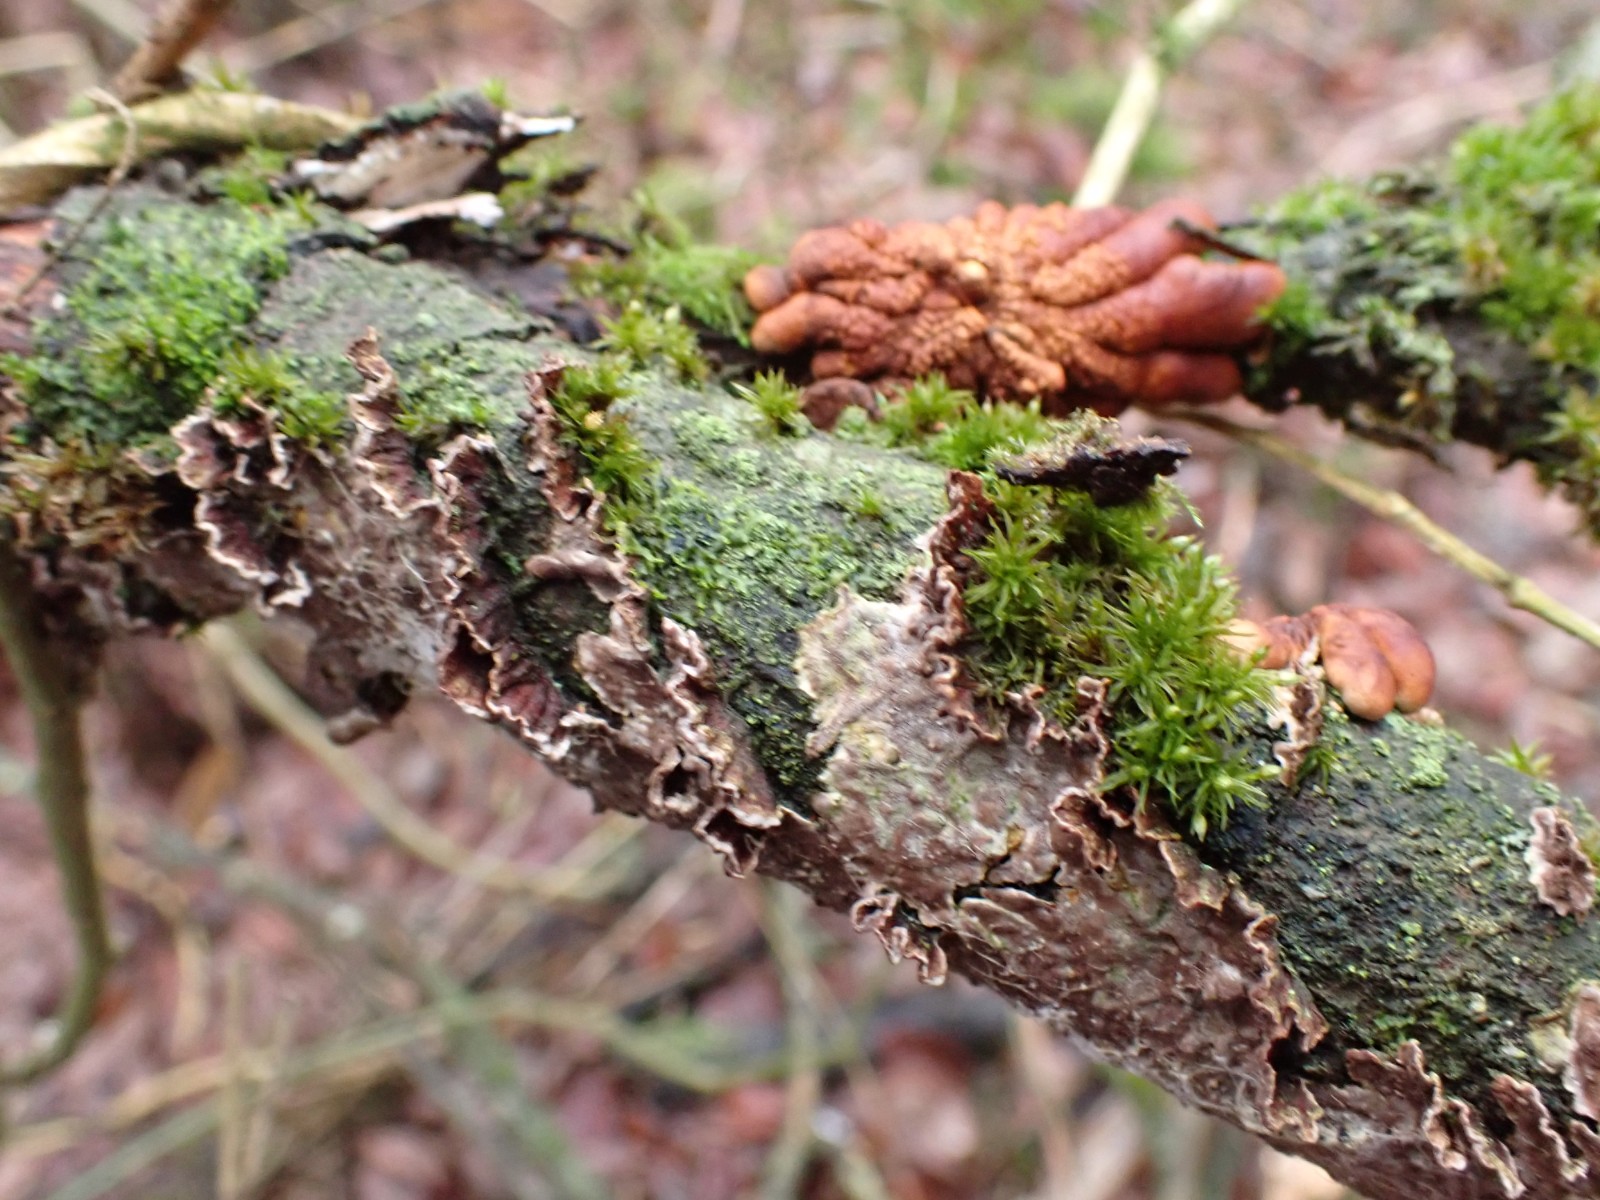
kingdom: Fungi
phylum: Basidiomycota
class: Agaricomycetes
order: Hymenochaetales
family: Hymenochaetaceae
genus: Hydnoporia
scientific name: Hydnoporia tabacina
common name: tobaksbrun ruslædersvamp
